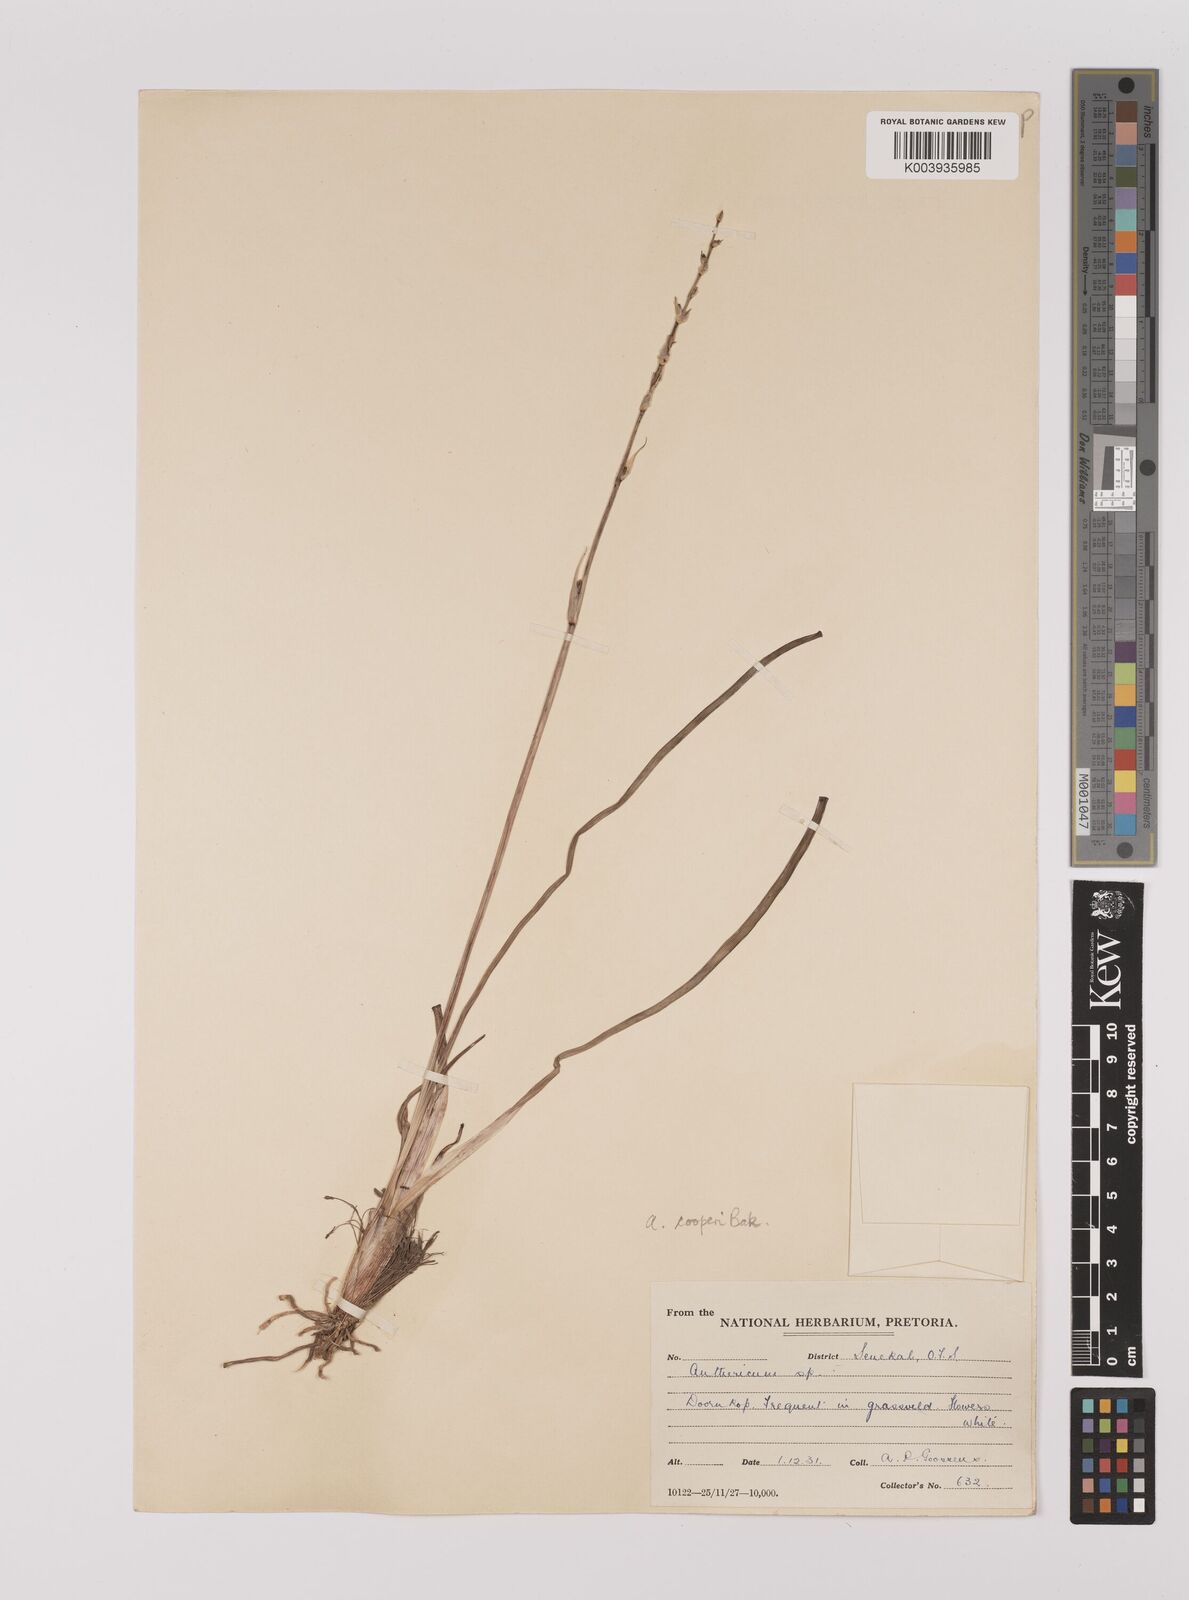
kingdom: Plantae
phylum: Tracheophyta
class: Liliopsida
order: Asparagales
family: Asparagaceae
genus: Chlorophytum
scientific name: Chlorophytum cooperi
